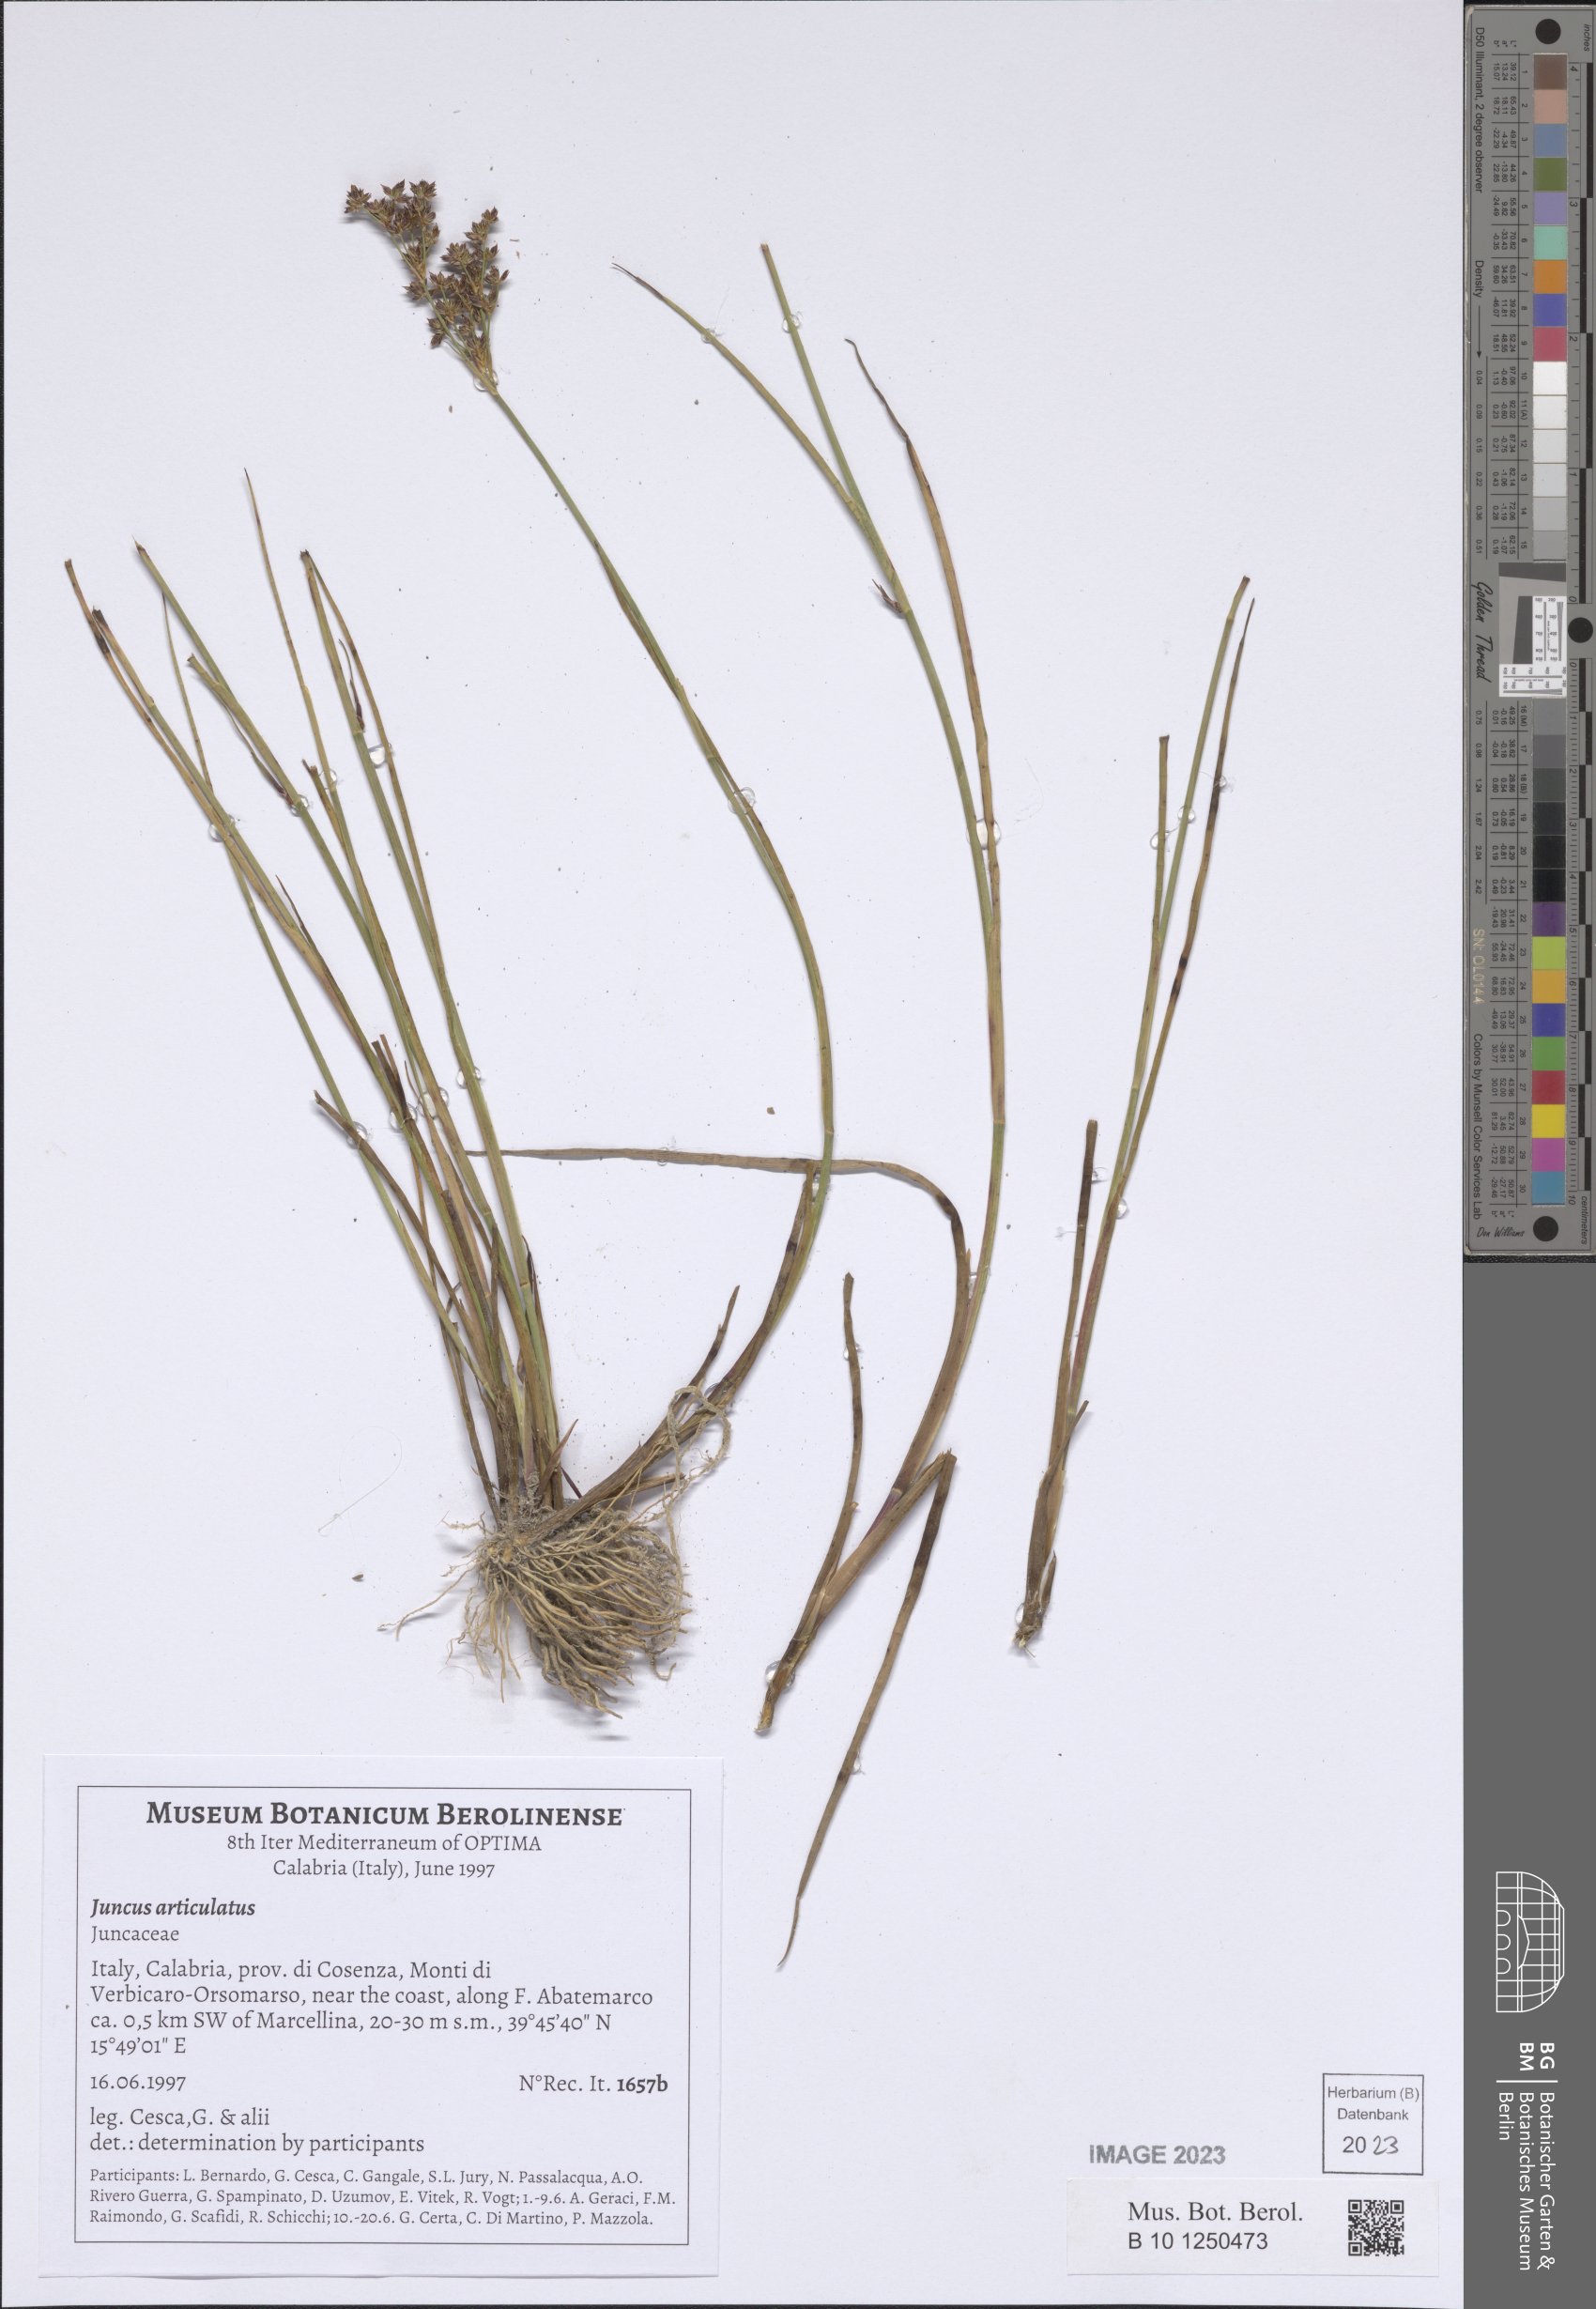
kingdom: Plantae
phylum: Tracheophyta
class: Liliopsida
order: Poales
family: Juncaceae
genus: Juncus
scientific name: Juncus articulatus
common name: Jointed rush
